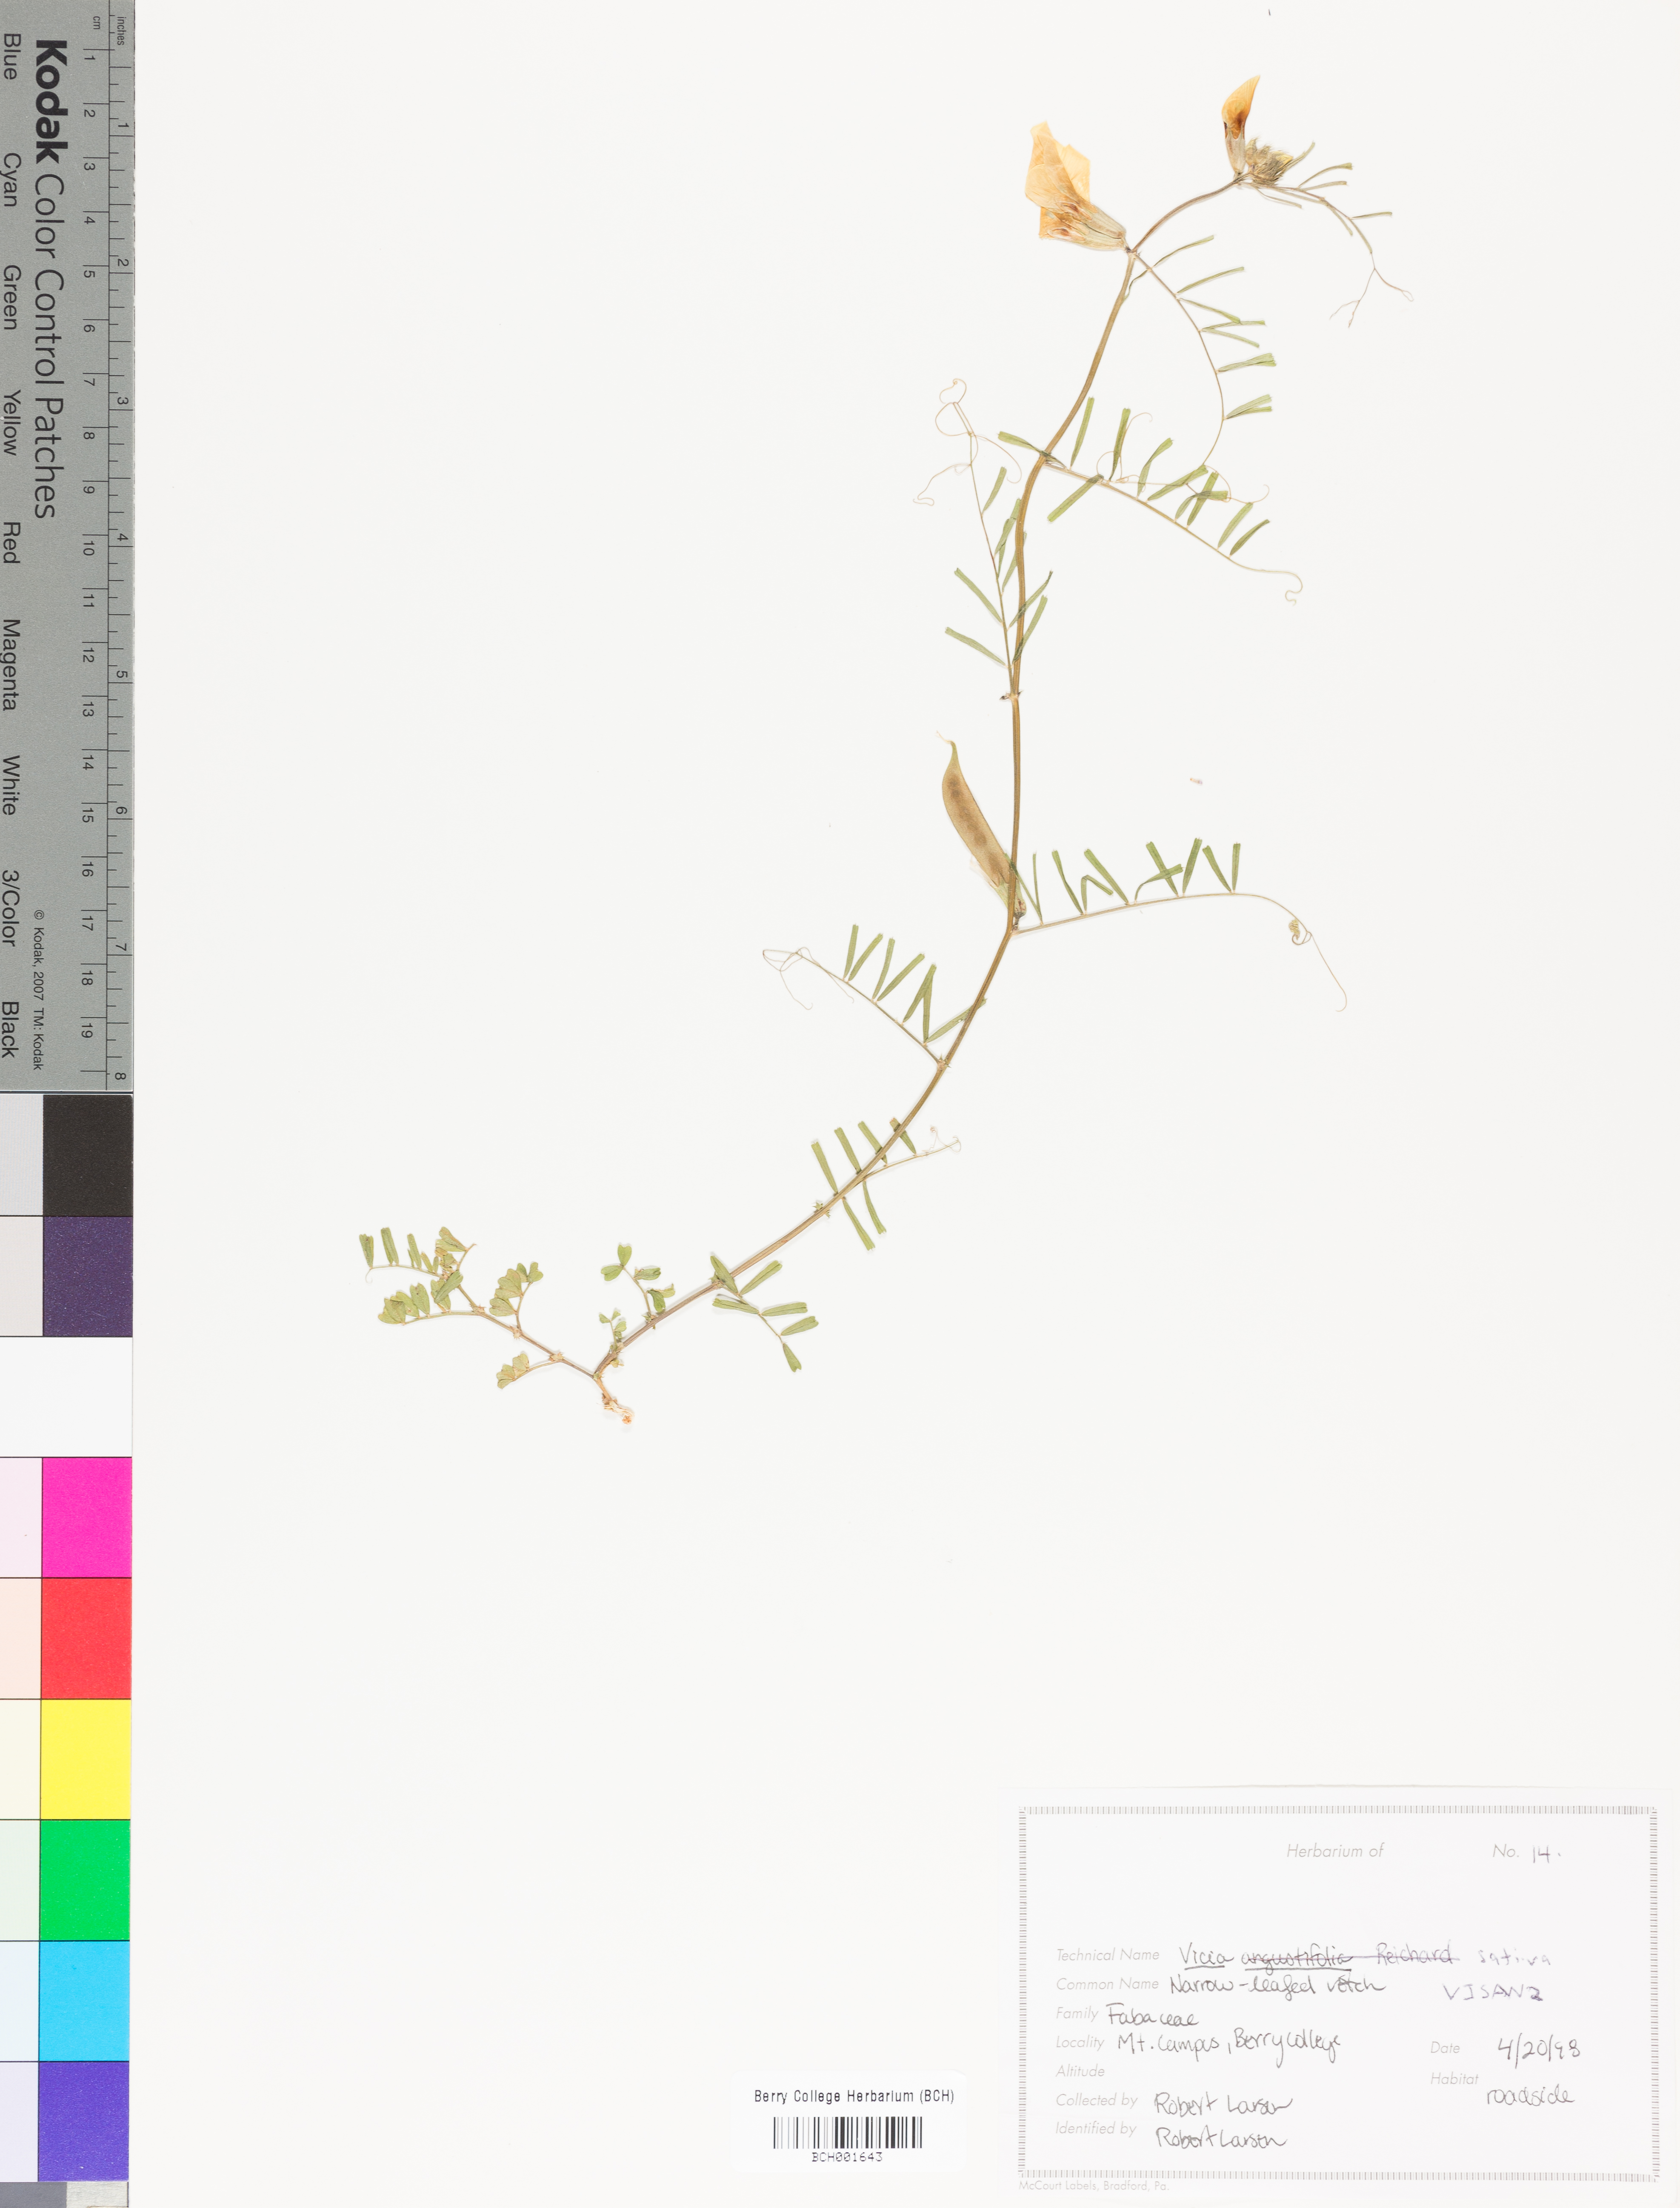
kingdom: Plantae
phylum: Tracheophyta
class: Magnoliopsida
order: Fabales
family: Fabaceae
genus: Vicia
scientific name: Vicia sativa
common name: Garden vetch
